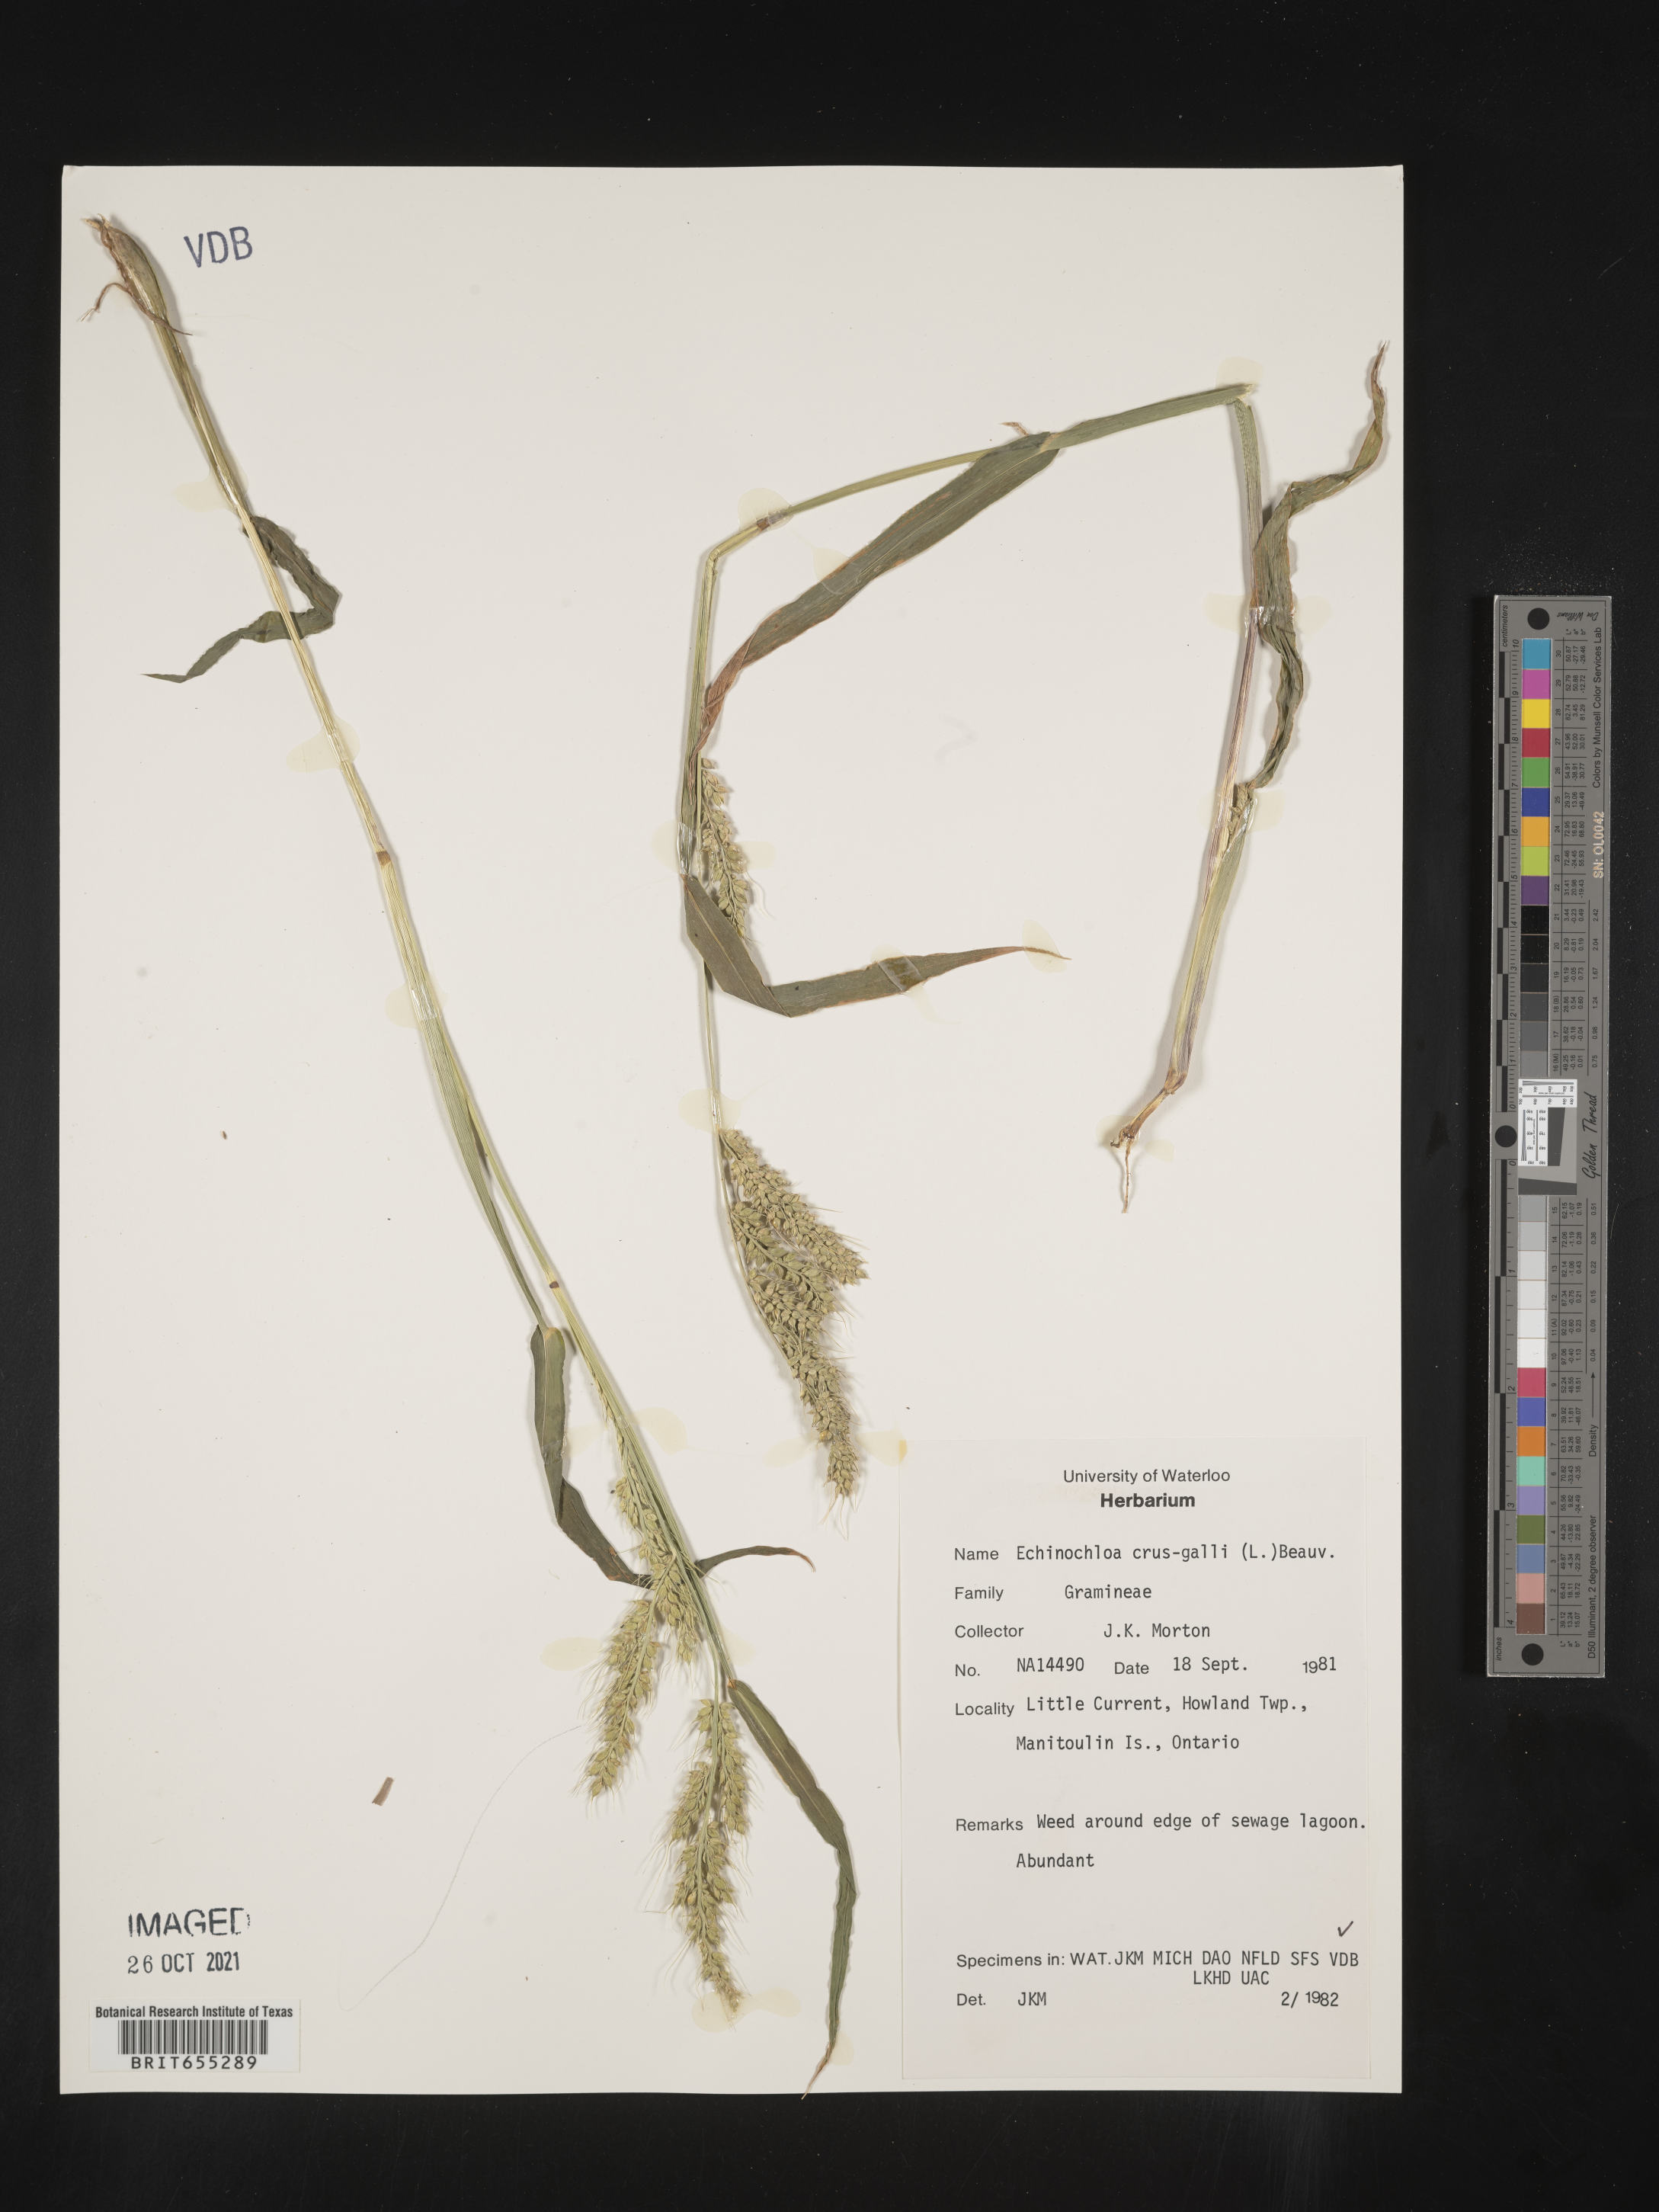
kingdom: Plantae
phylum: Tracheophyta
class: Liliopsida
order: Poales
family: Poaceae
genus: Echinochloa
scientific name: Echinochloa
